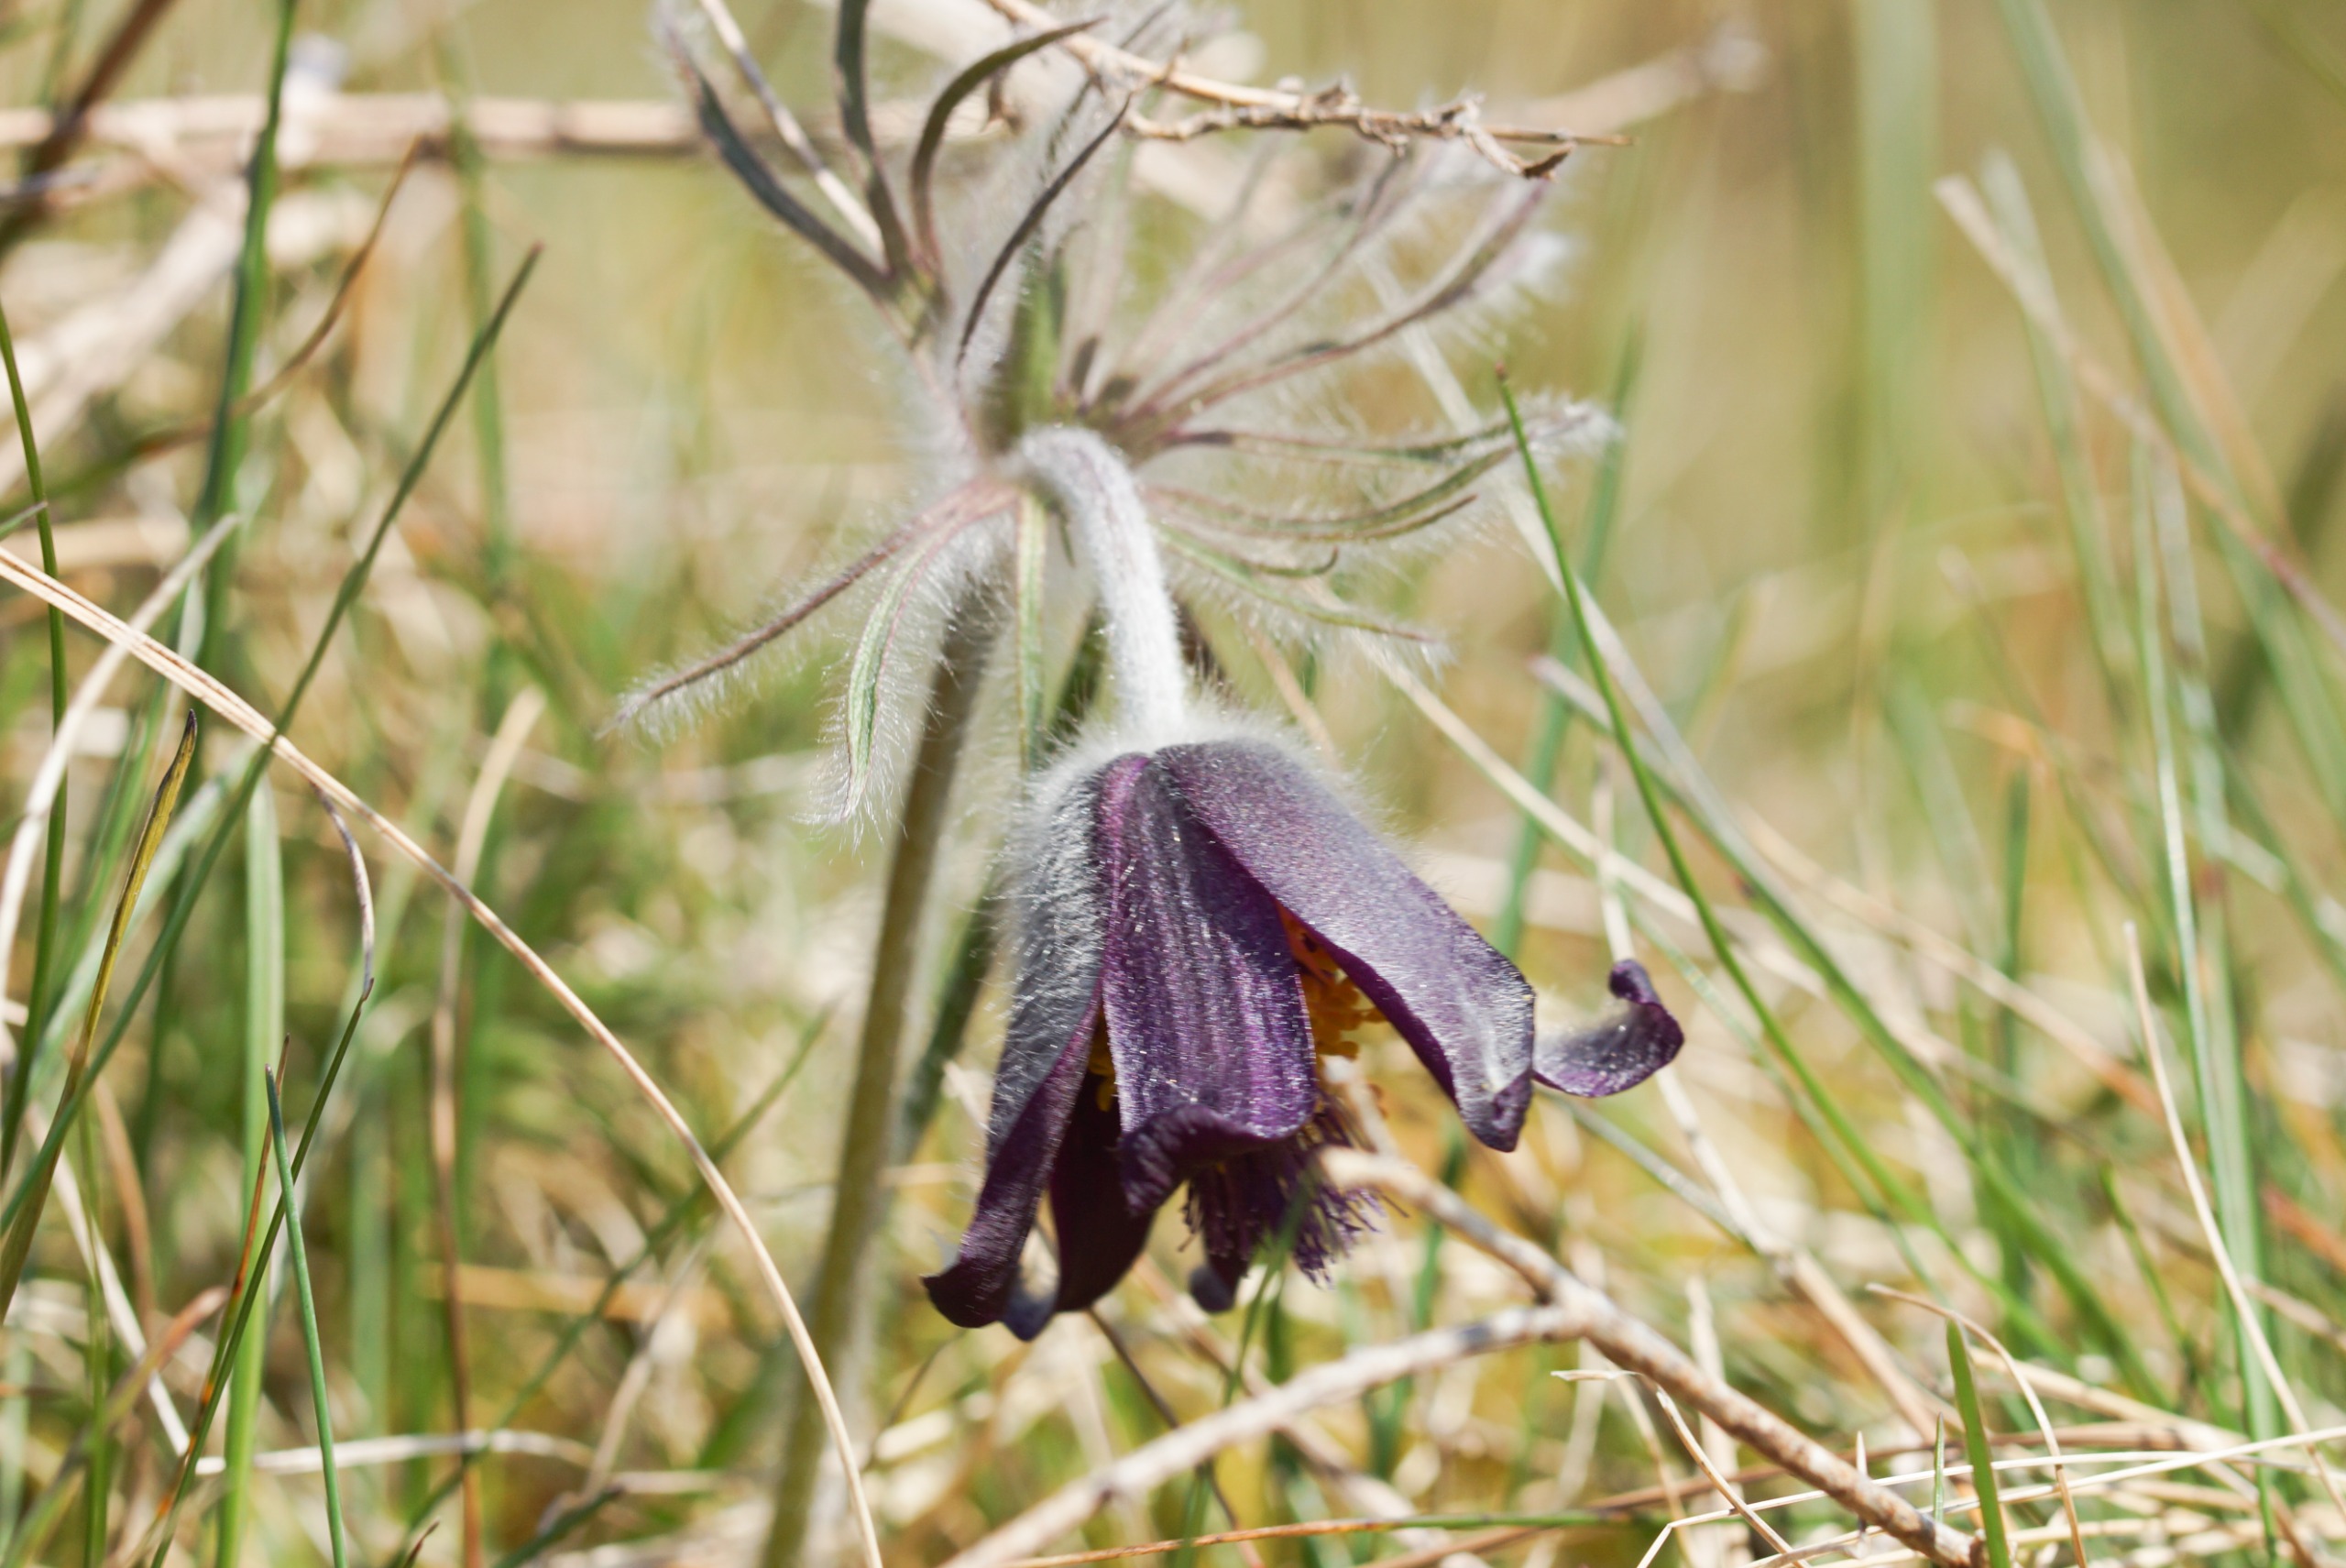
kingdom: Plantae
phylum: Tracheophyta
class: Magnoliopsida
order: Ranunculales
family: Ranunculaceae
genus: Pulsatilla
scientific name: Pulsatilla pratensis
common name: Nikkende kobjælde
